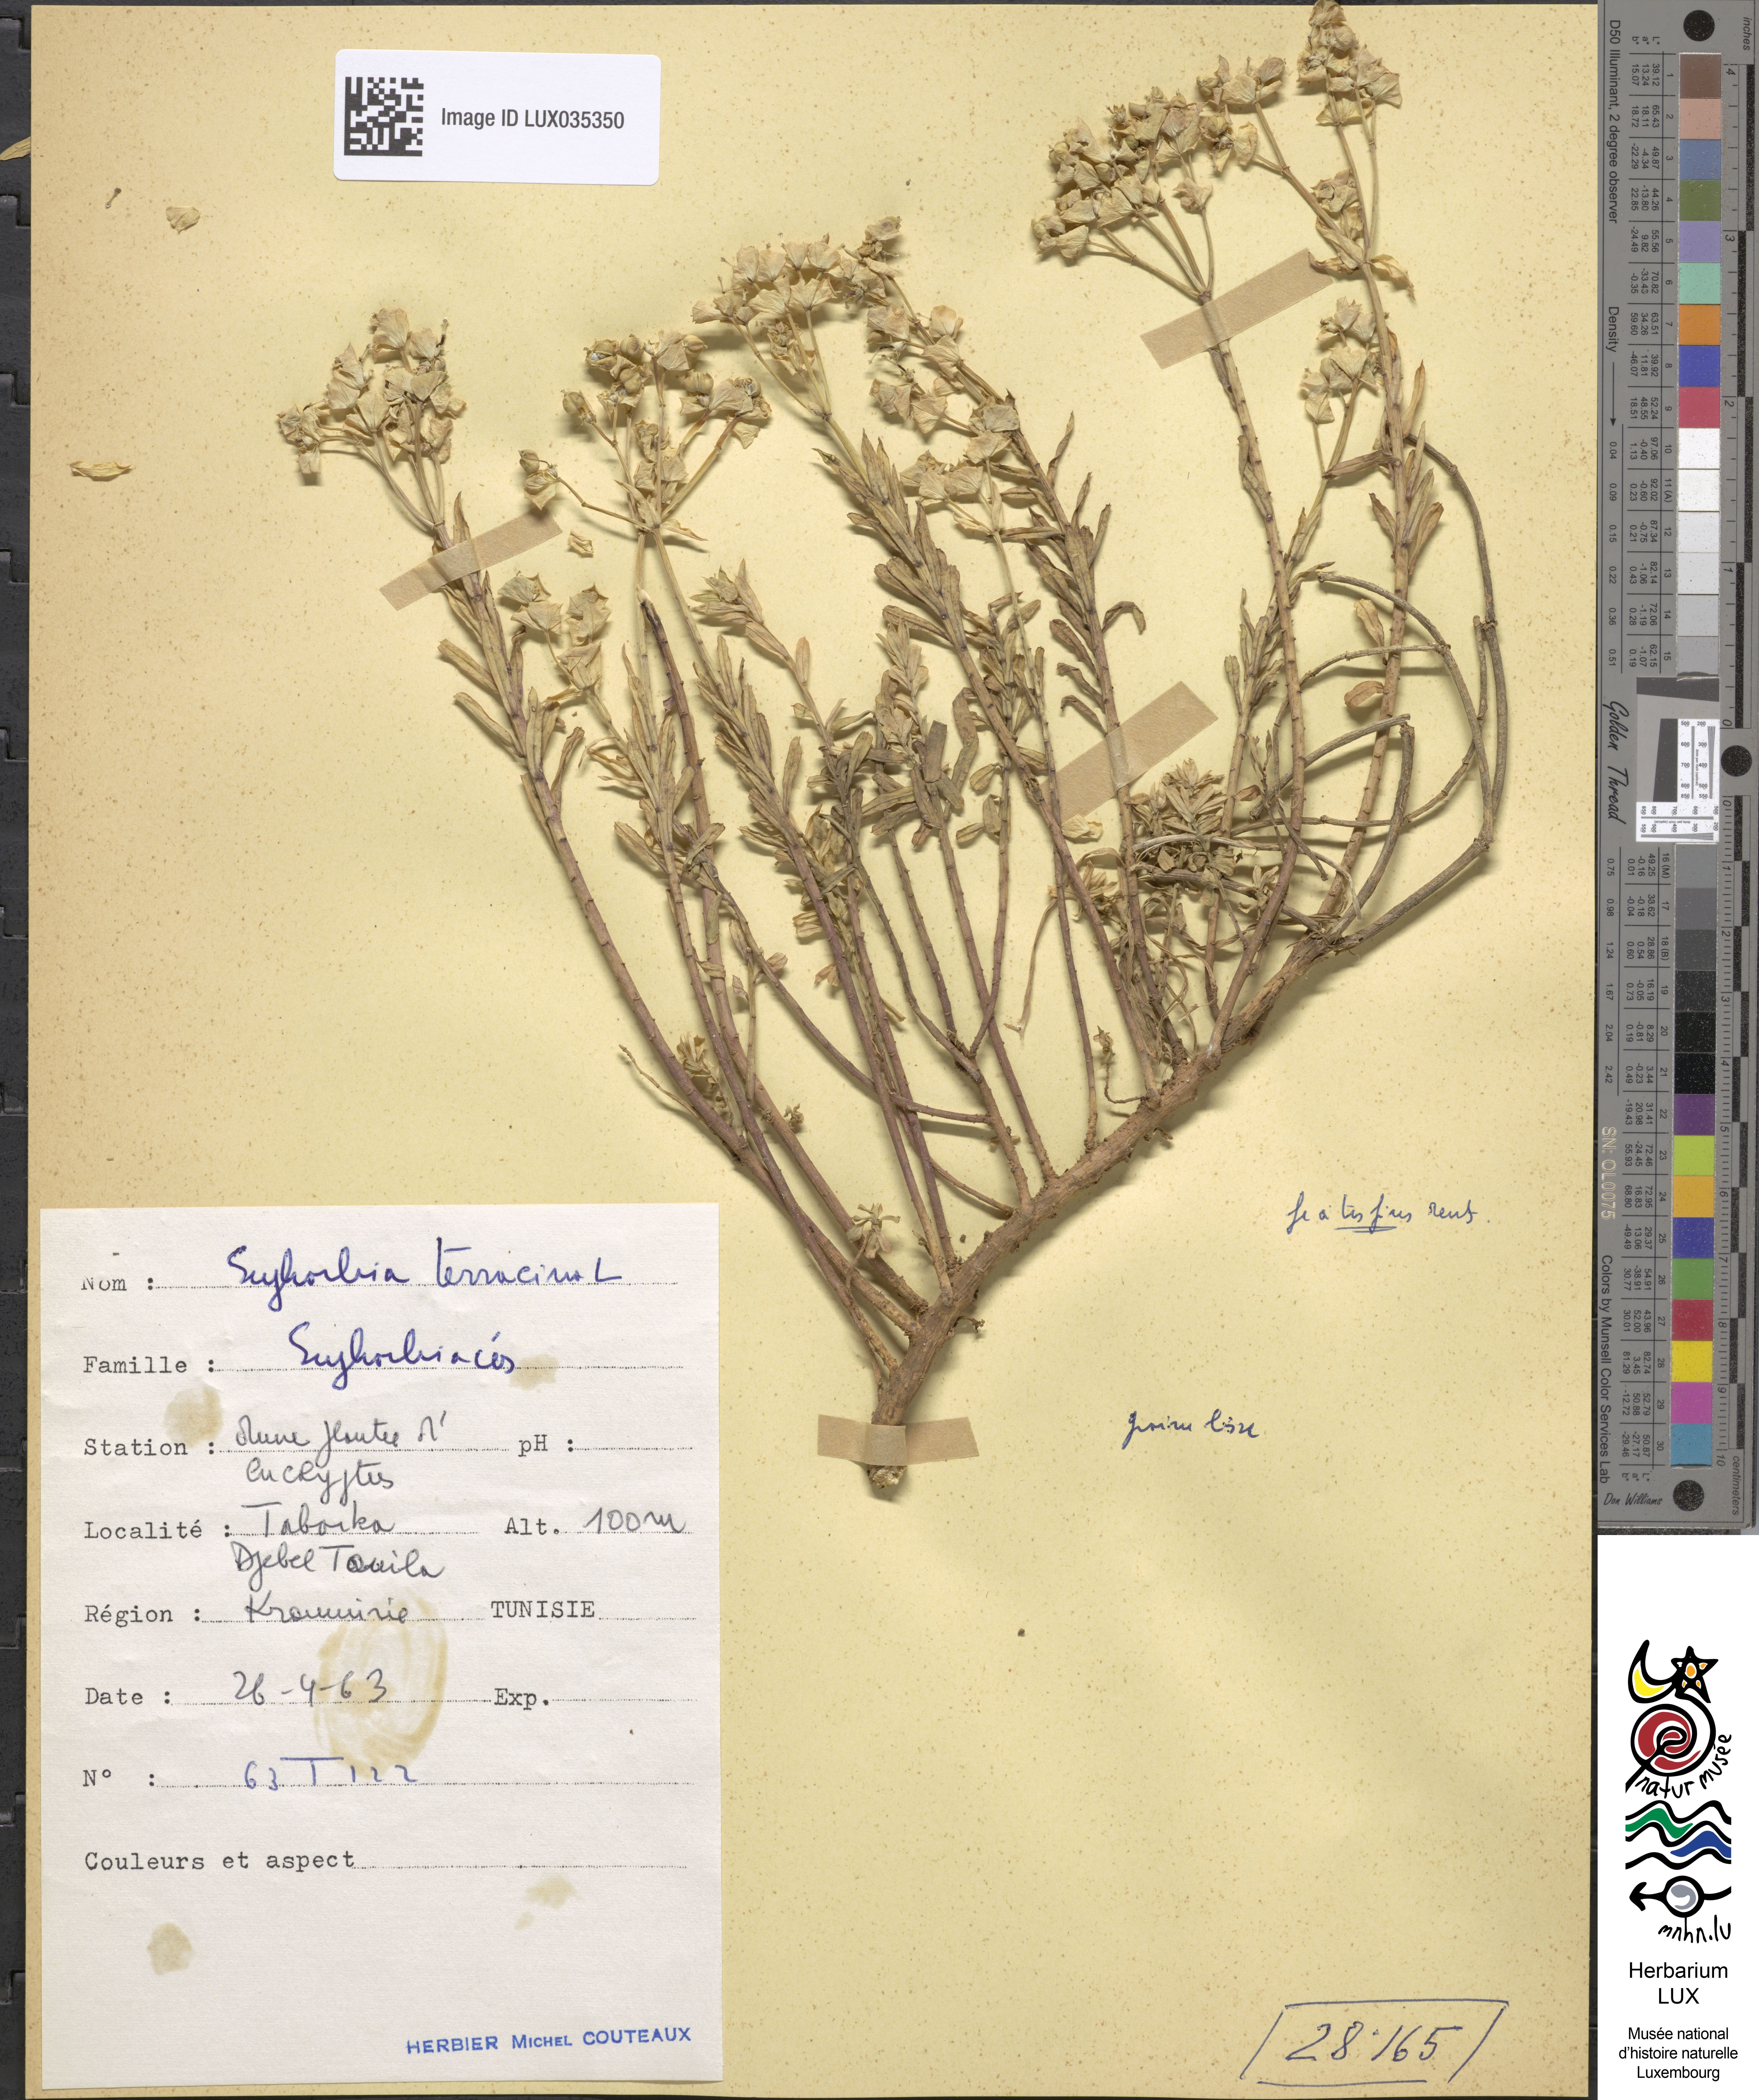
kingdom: Plantae
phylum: Tracheophyta
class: Magnoliopsida
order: Malpighiales
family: Euphorbiaceae
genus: Euphorbia
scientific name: Euphorbia terracina
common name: Geraldton carnation weed
